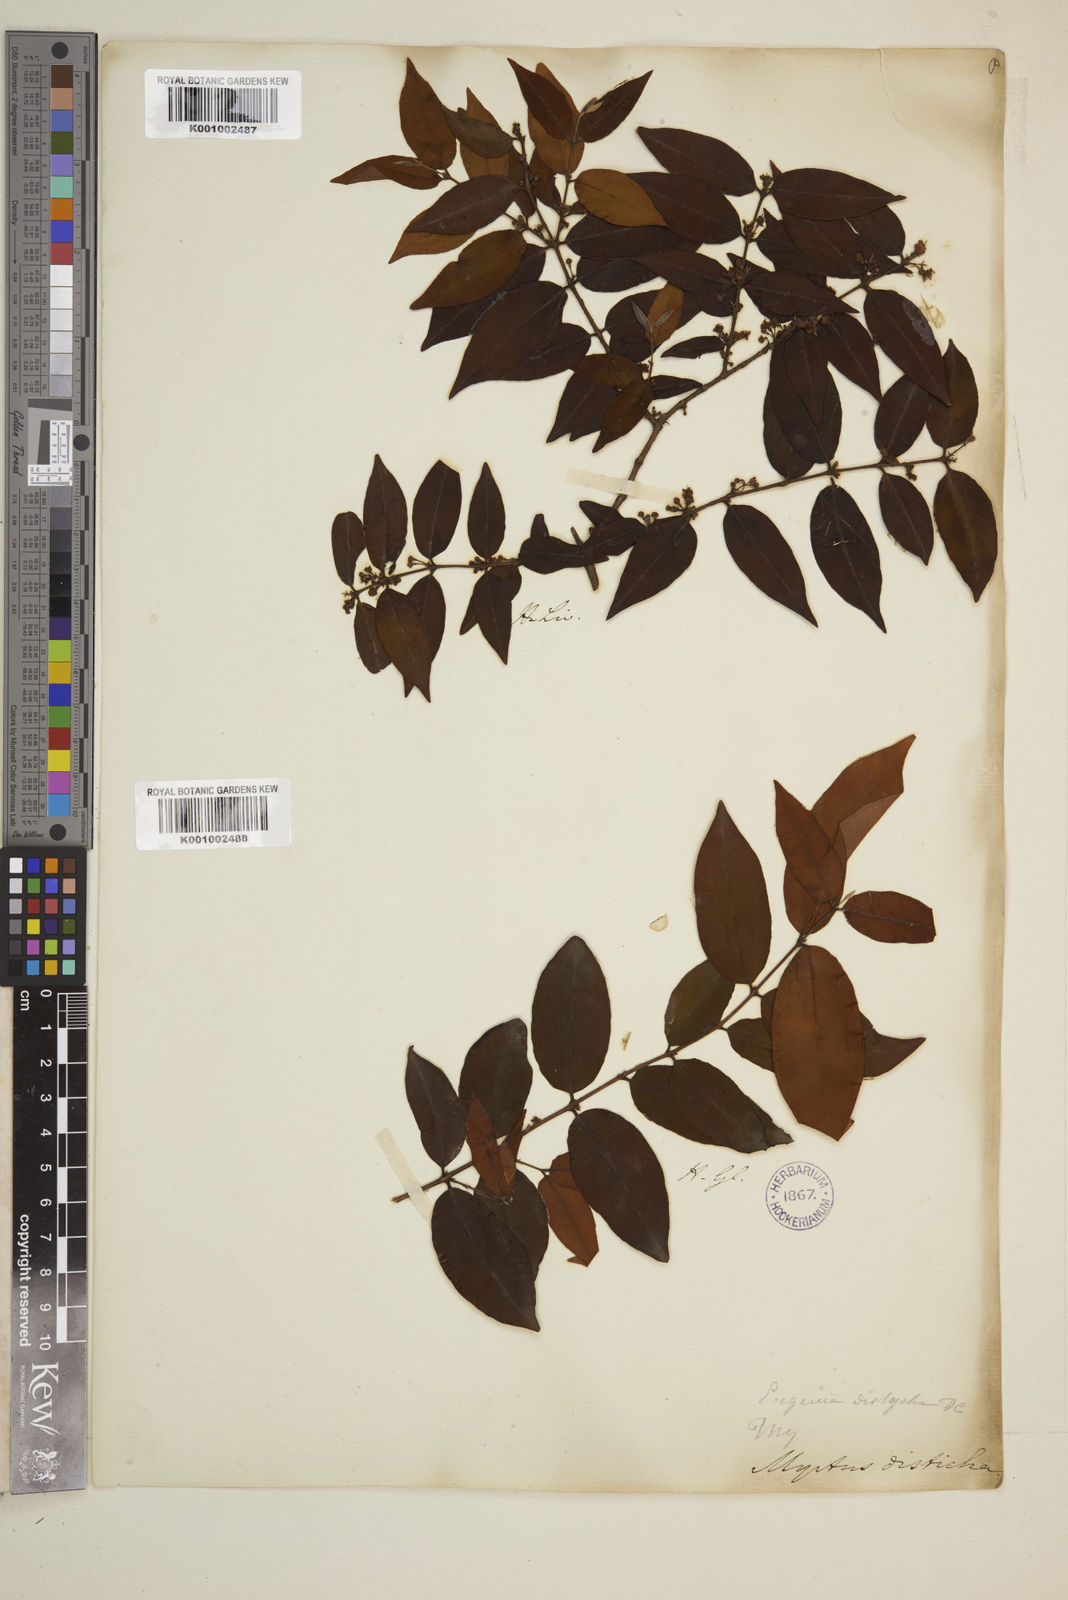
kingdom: Plantae
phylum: Tracheophyta
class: Magnoliopsida
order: Myrtales
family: Myrtaceae
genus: Eugenia
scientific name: Eugenia disticha
